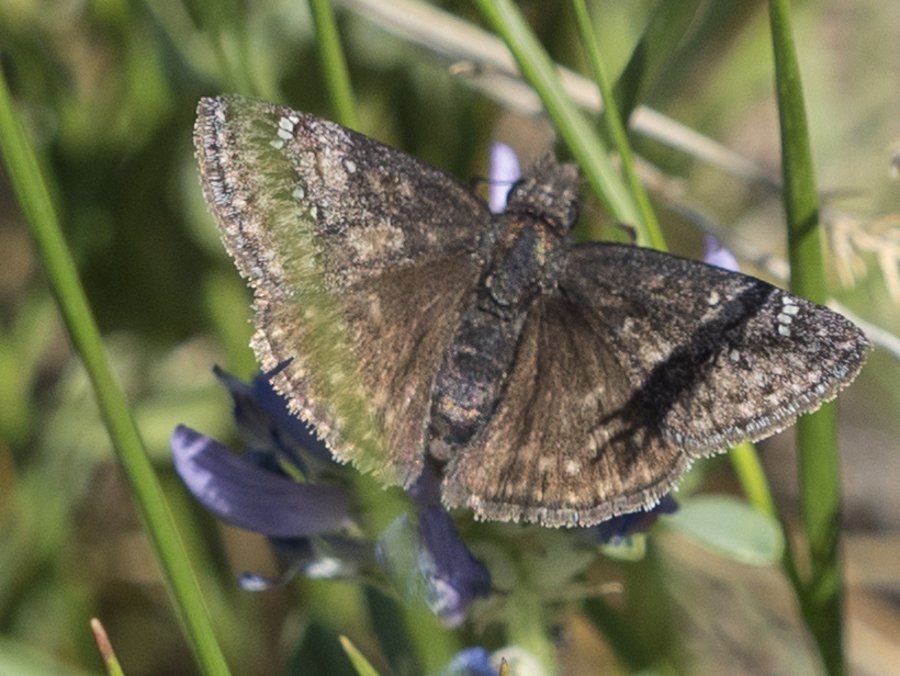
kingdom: Animalia
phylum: Arthropoda
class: Insecta
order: Lepidoptera
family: Hesperiidae
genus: Gesta
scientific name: Gesta
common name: Persius Duskywing
